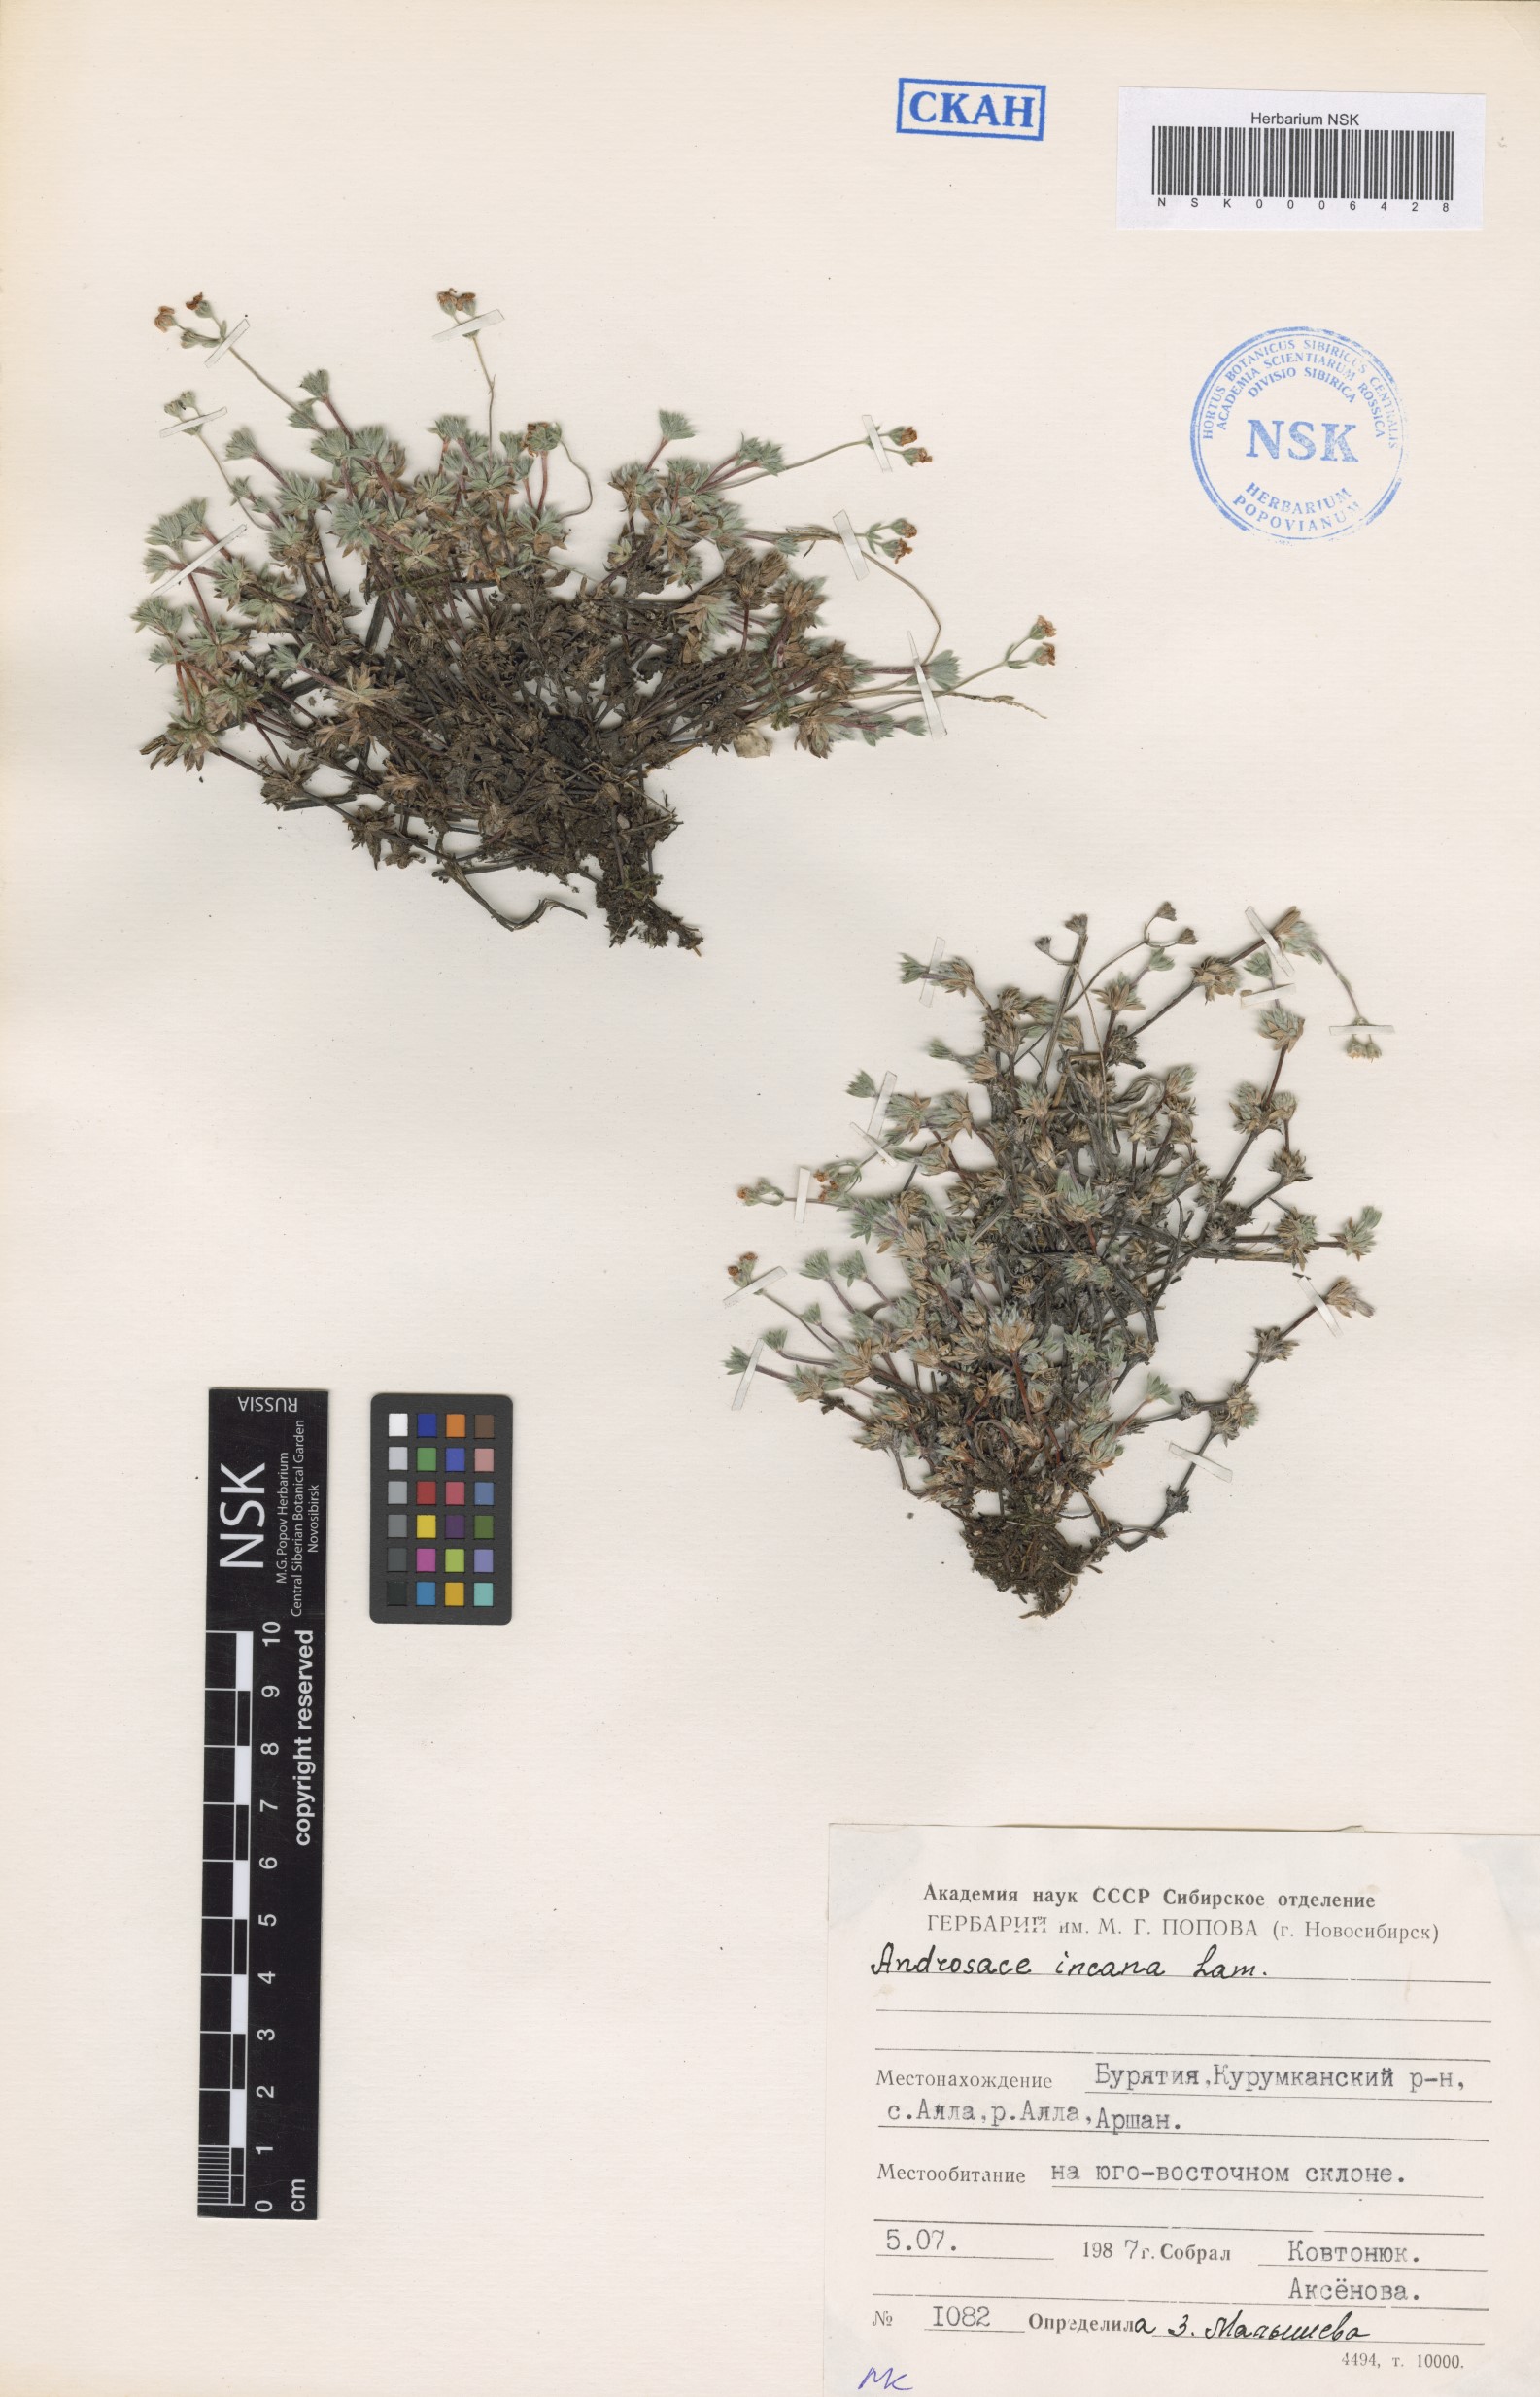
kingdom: Plantae
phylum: Tracheophyta
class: Magnoliopsida
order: Ericales
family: Primulaceae
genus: Androsace
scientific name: Androsace incana
